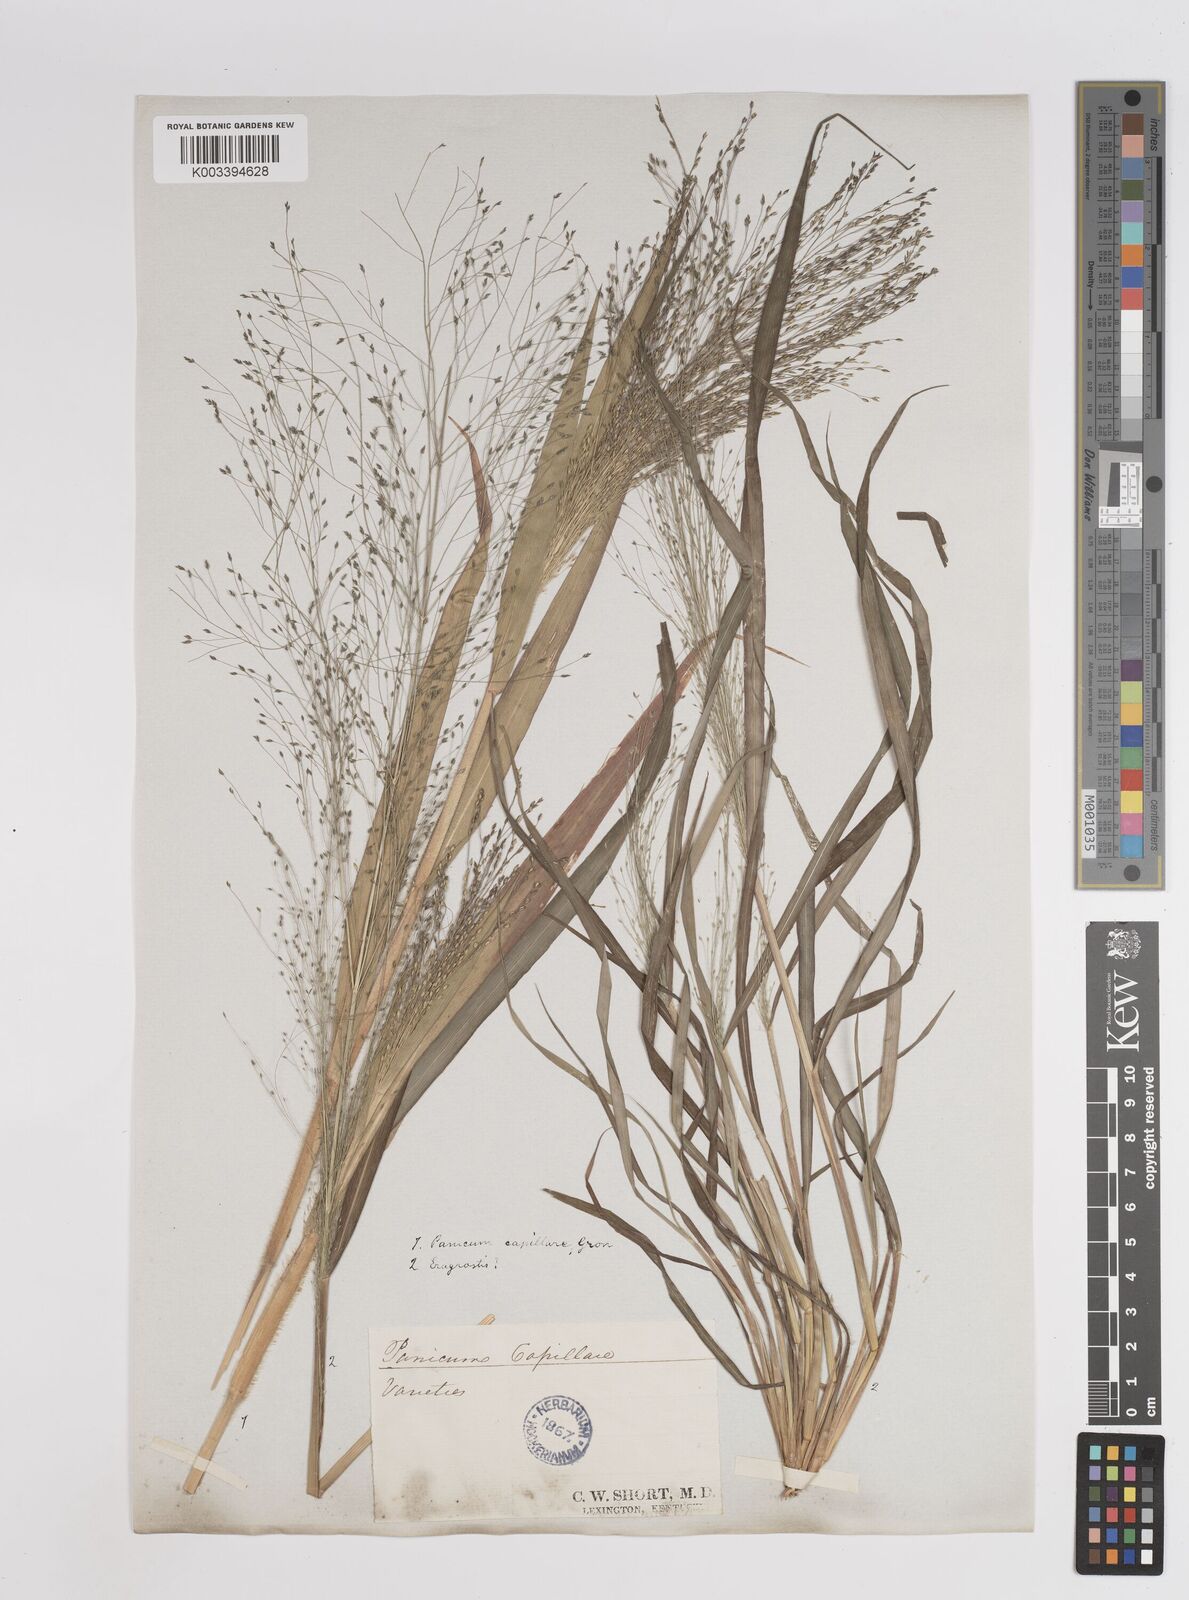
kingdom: Plantae
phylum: Tracheophyta
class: Liliopsida
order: Poales
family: Poaceae
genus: Panicum
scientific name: Panicum capillare
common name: Witch-grass
